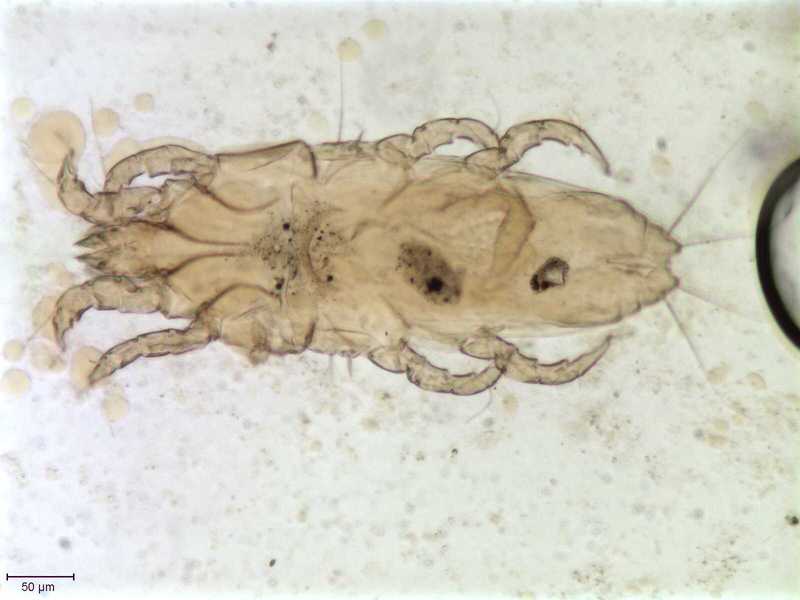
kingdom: Animalia
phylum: Arthropoda
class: Arachnida
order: Sarcoptiformes
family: Proctophyllodidae
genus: Proctophyllodes
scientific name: Proctophyllodes corvorum
